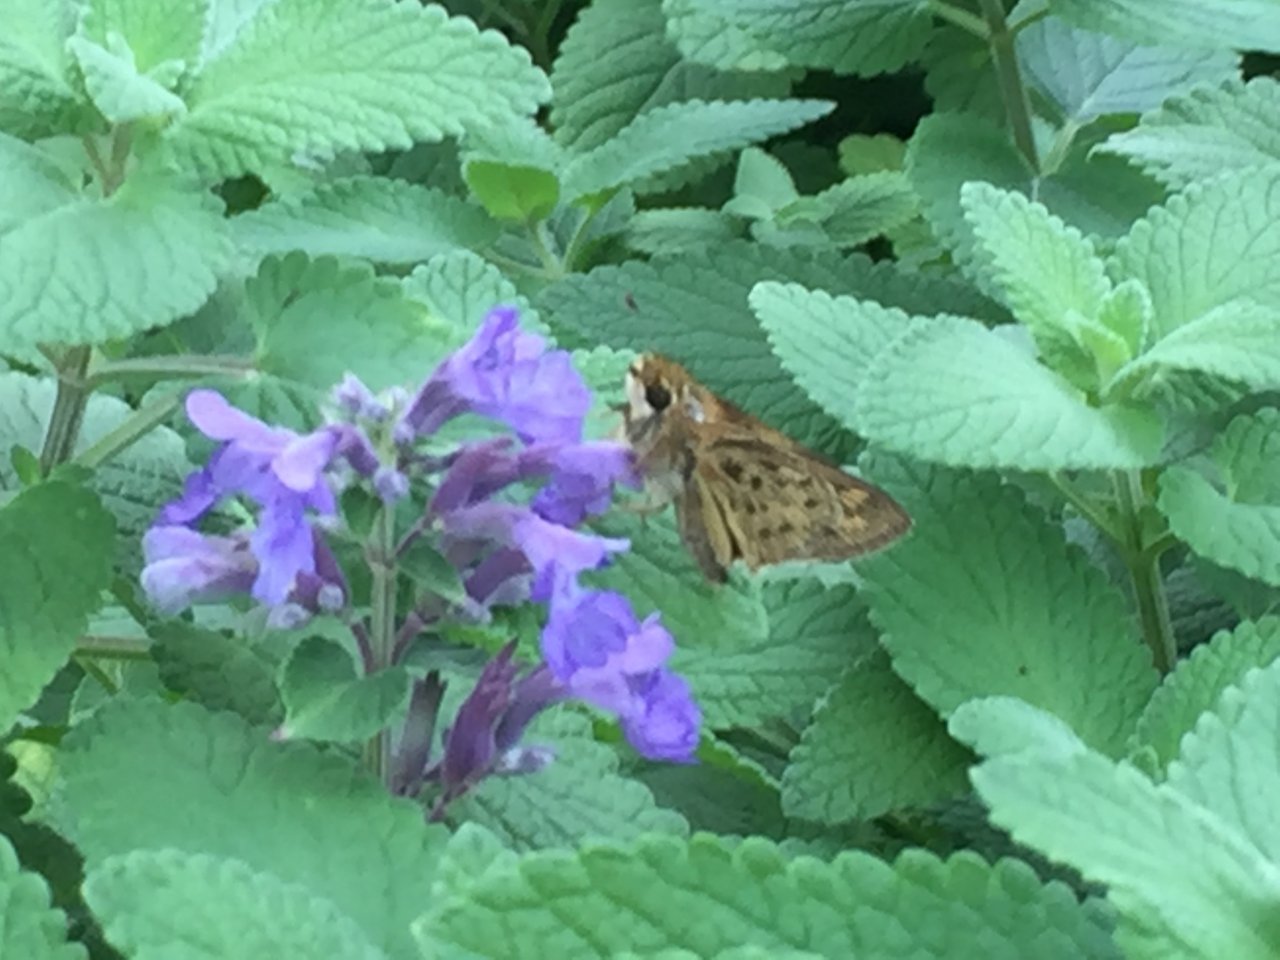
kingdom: Animalia
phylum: Arthropoda
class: Insecta
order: Lepidoptera
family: Hesperiidae
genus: Hylephila
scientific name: Hylephila phyleus
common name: Fiery Skipper
